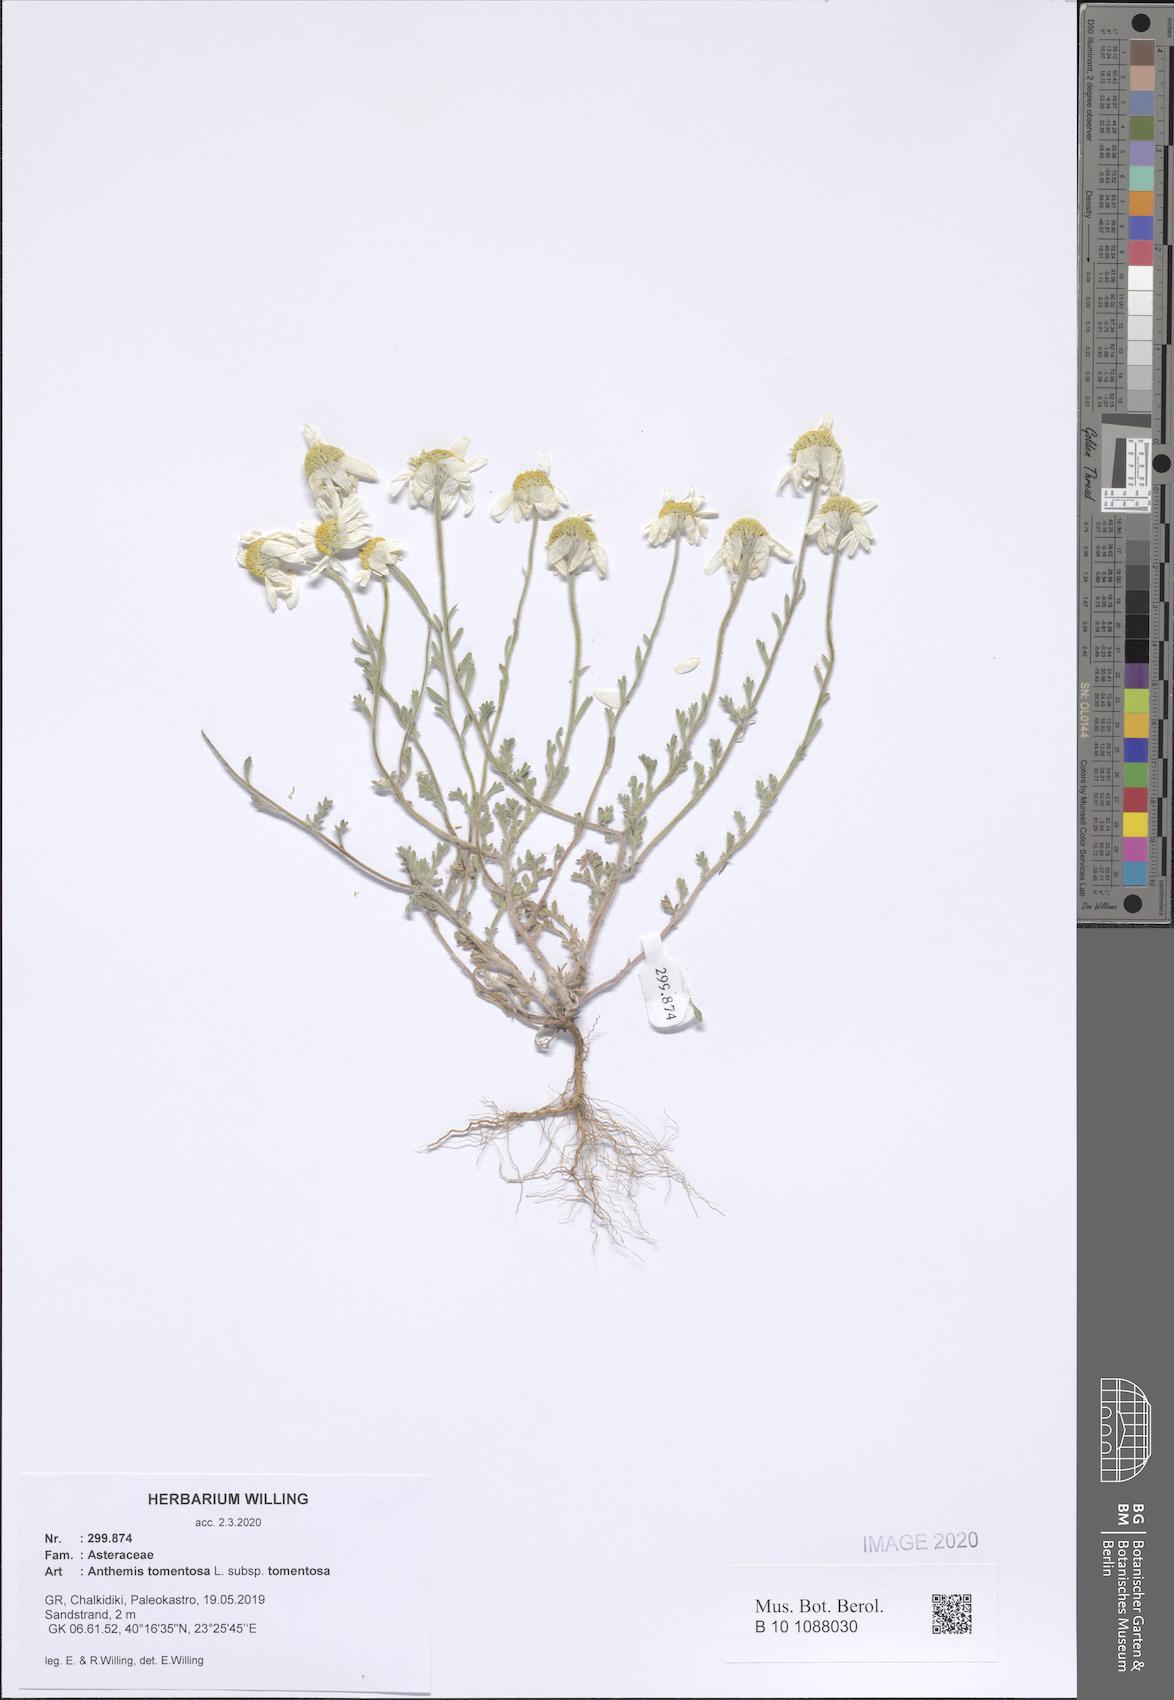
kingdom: Plantae
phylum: Tracheophyta
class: Magnoliopsida
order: Asterales
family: Asteraceae
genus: Anthemis
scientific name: Anthemis tomentosa
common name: Woolly chamomile
